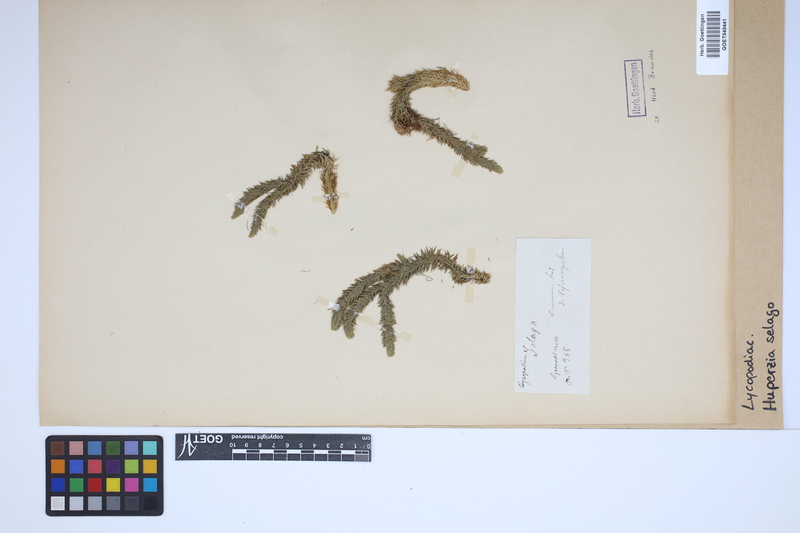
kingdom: Plantae
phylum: Tracheophyta
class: Lycopodiopsida
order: Lycopodiales
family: Lycopodiaceae
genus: Huperzia
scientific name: Huperzia selago
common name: Northern firmoss
